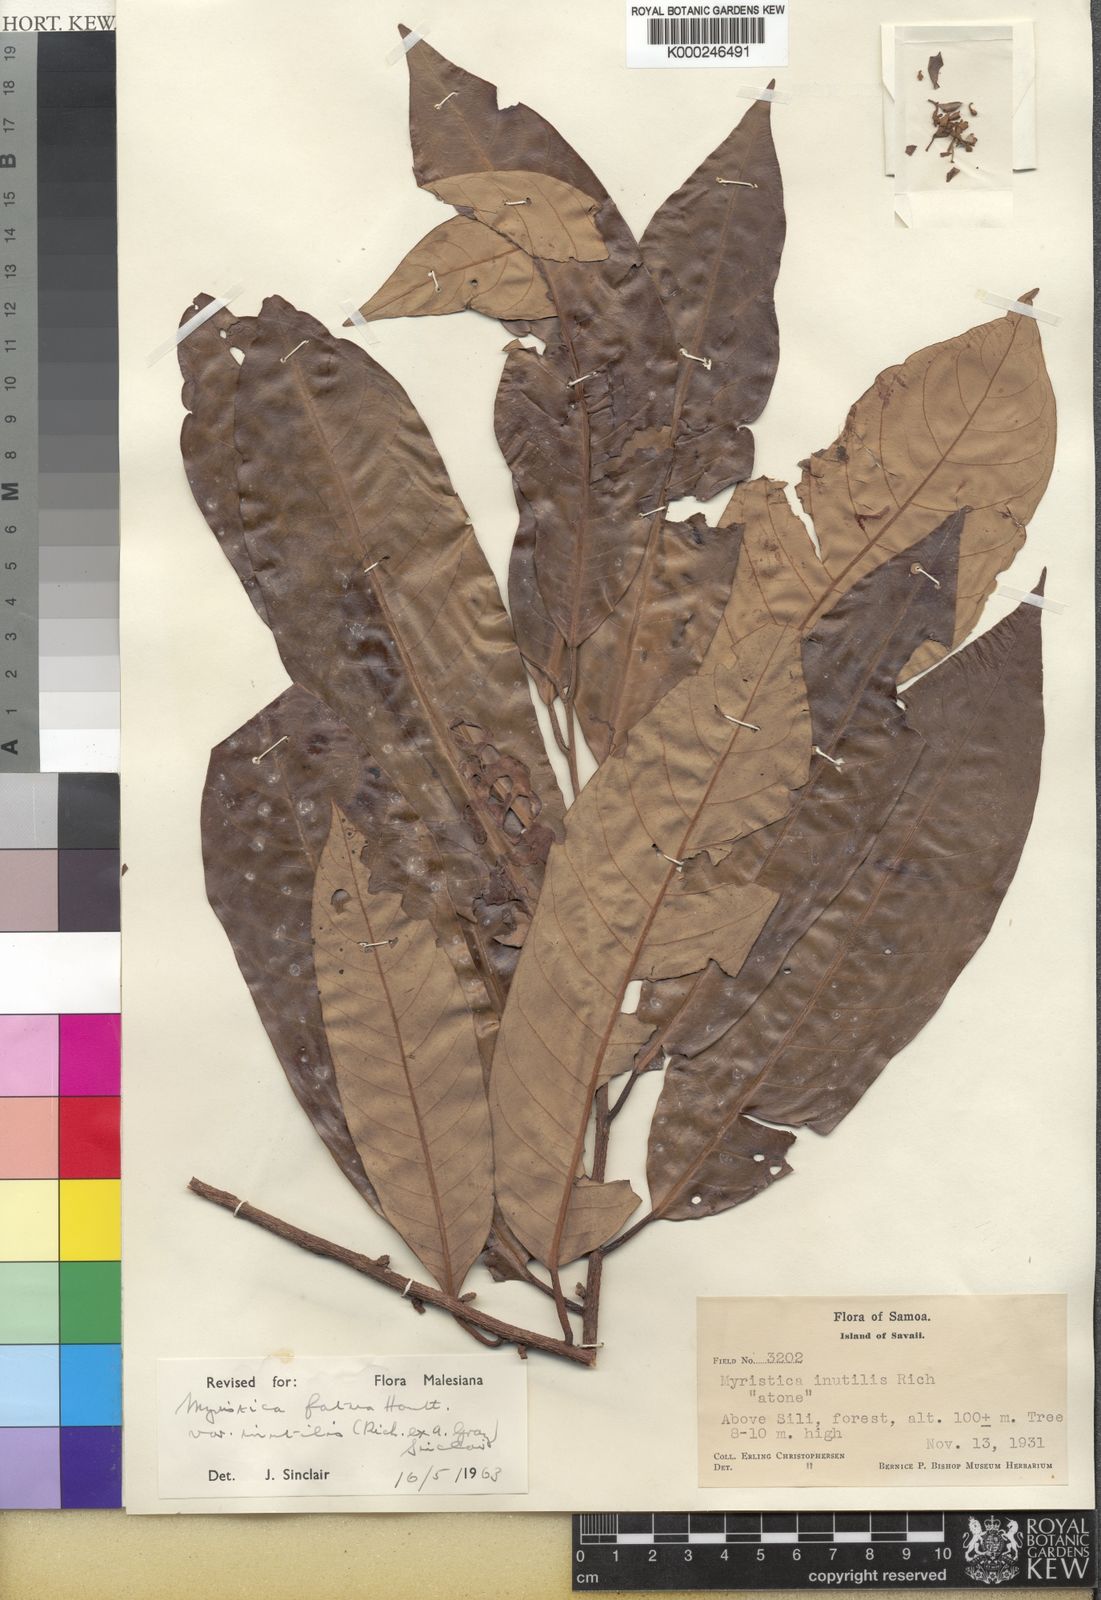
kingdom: Plantae
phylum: Tracheophyta
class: Magnoliopsida
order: Magnoliales
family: Myristicaceae
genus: Myristica
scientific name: Myristica fatua
